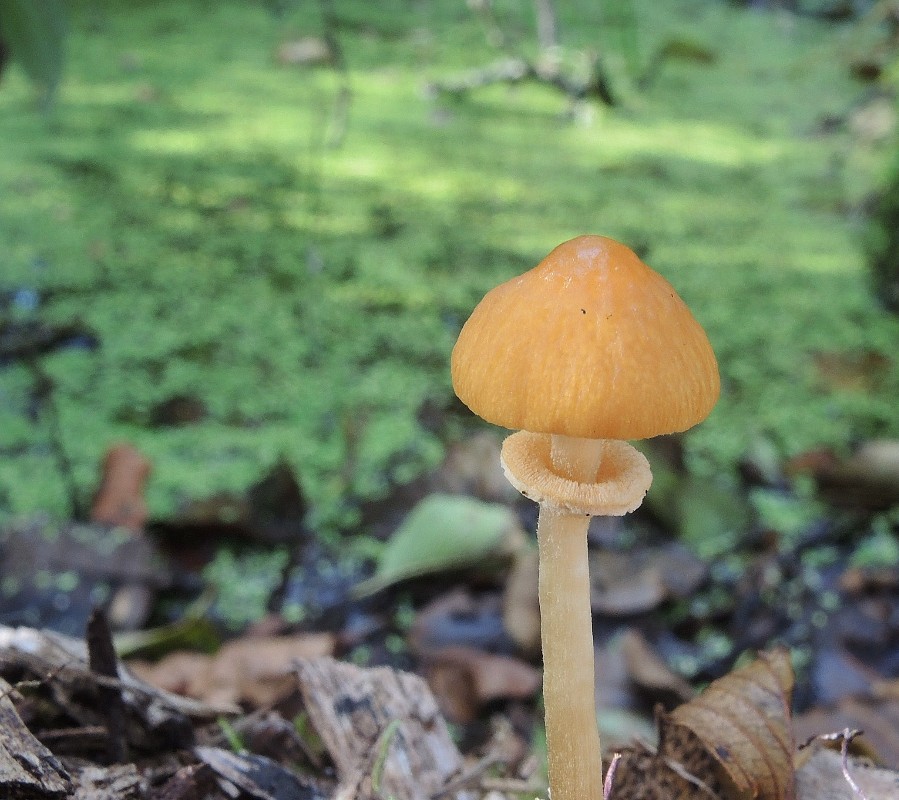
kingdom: Fungi
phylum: Basidiomycota
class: Agaricomycetes
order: Agaricales
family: Bolbitiaceae
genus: Conocybe
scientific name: Conocybe arrhenii
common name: ring-dansehat
